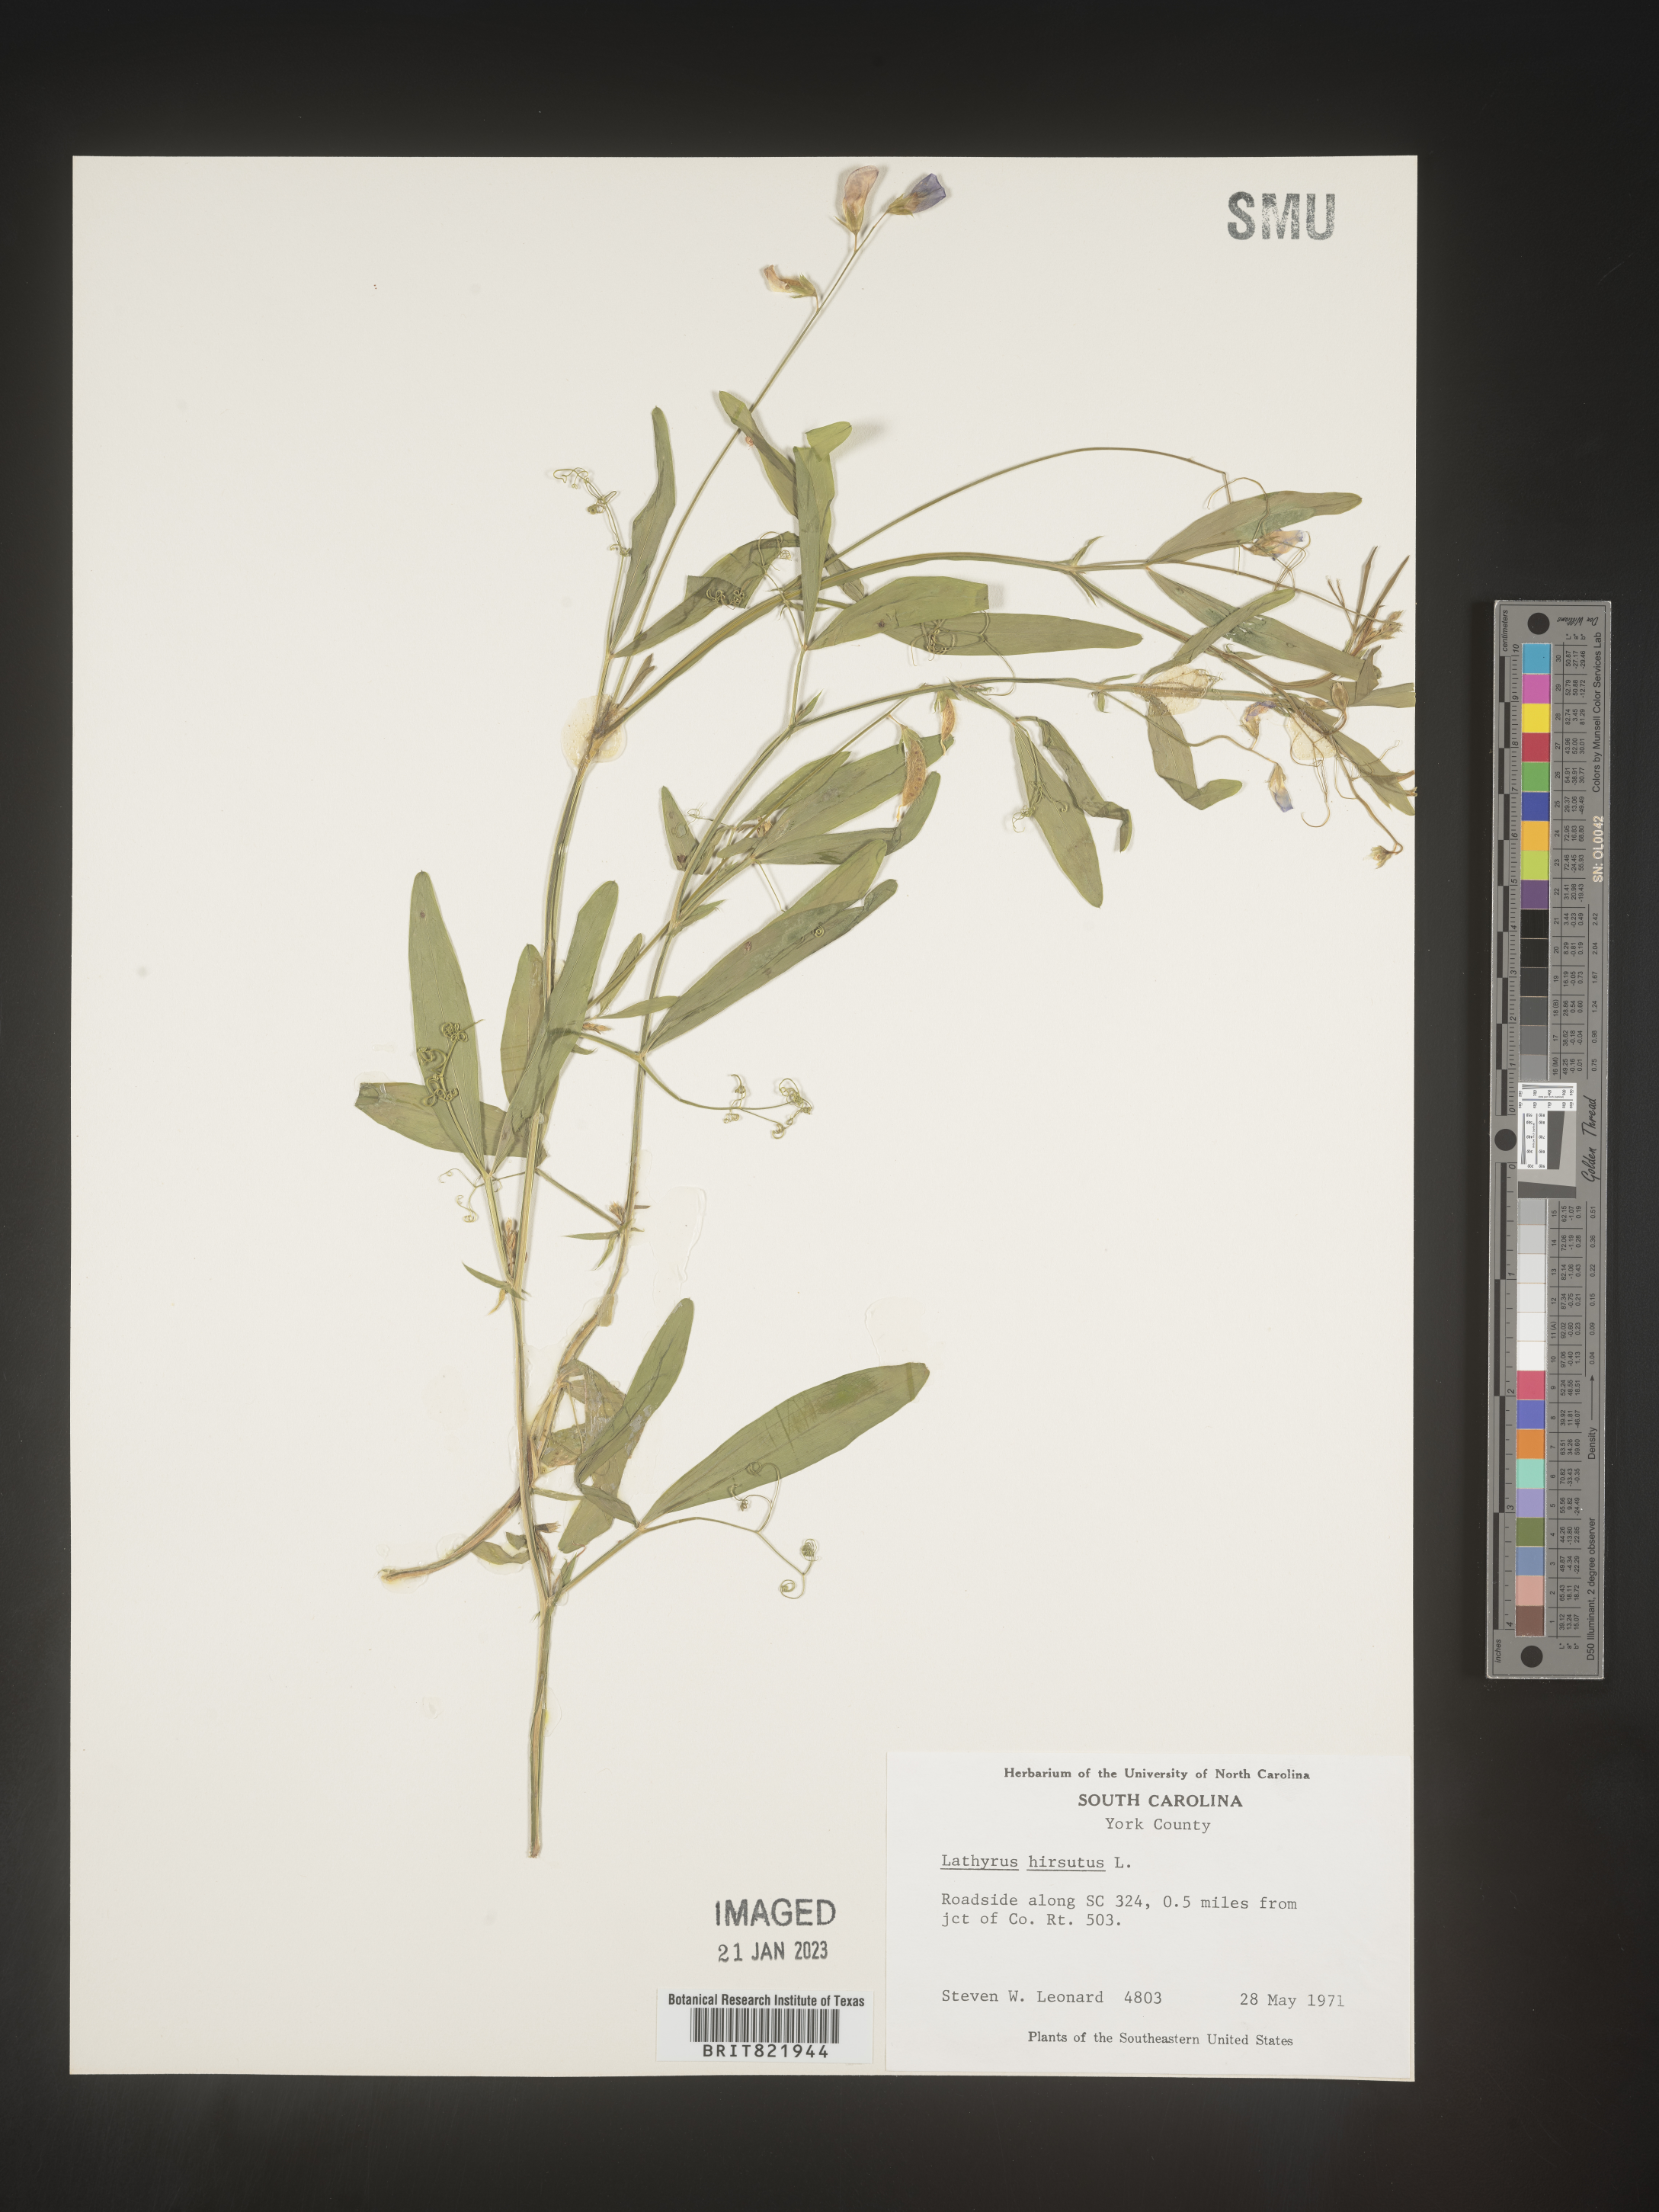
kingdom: Plantae
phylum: Tracheophyta
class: Magnoliopsida
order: Fabales
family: Fabaceae
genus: Lathyrus
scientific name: Lathyrus hirsutus
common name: Hairy vetchling
